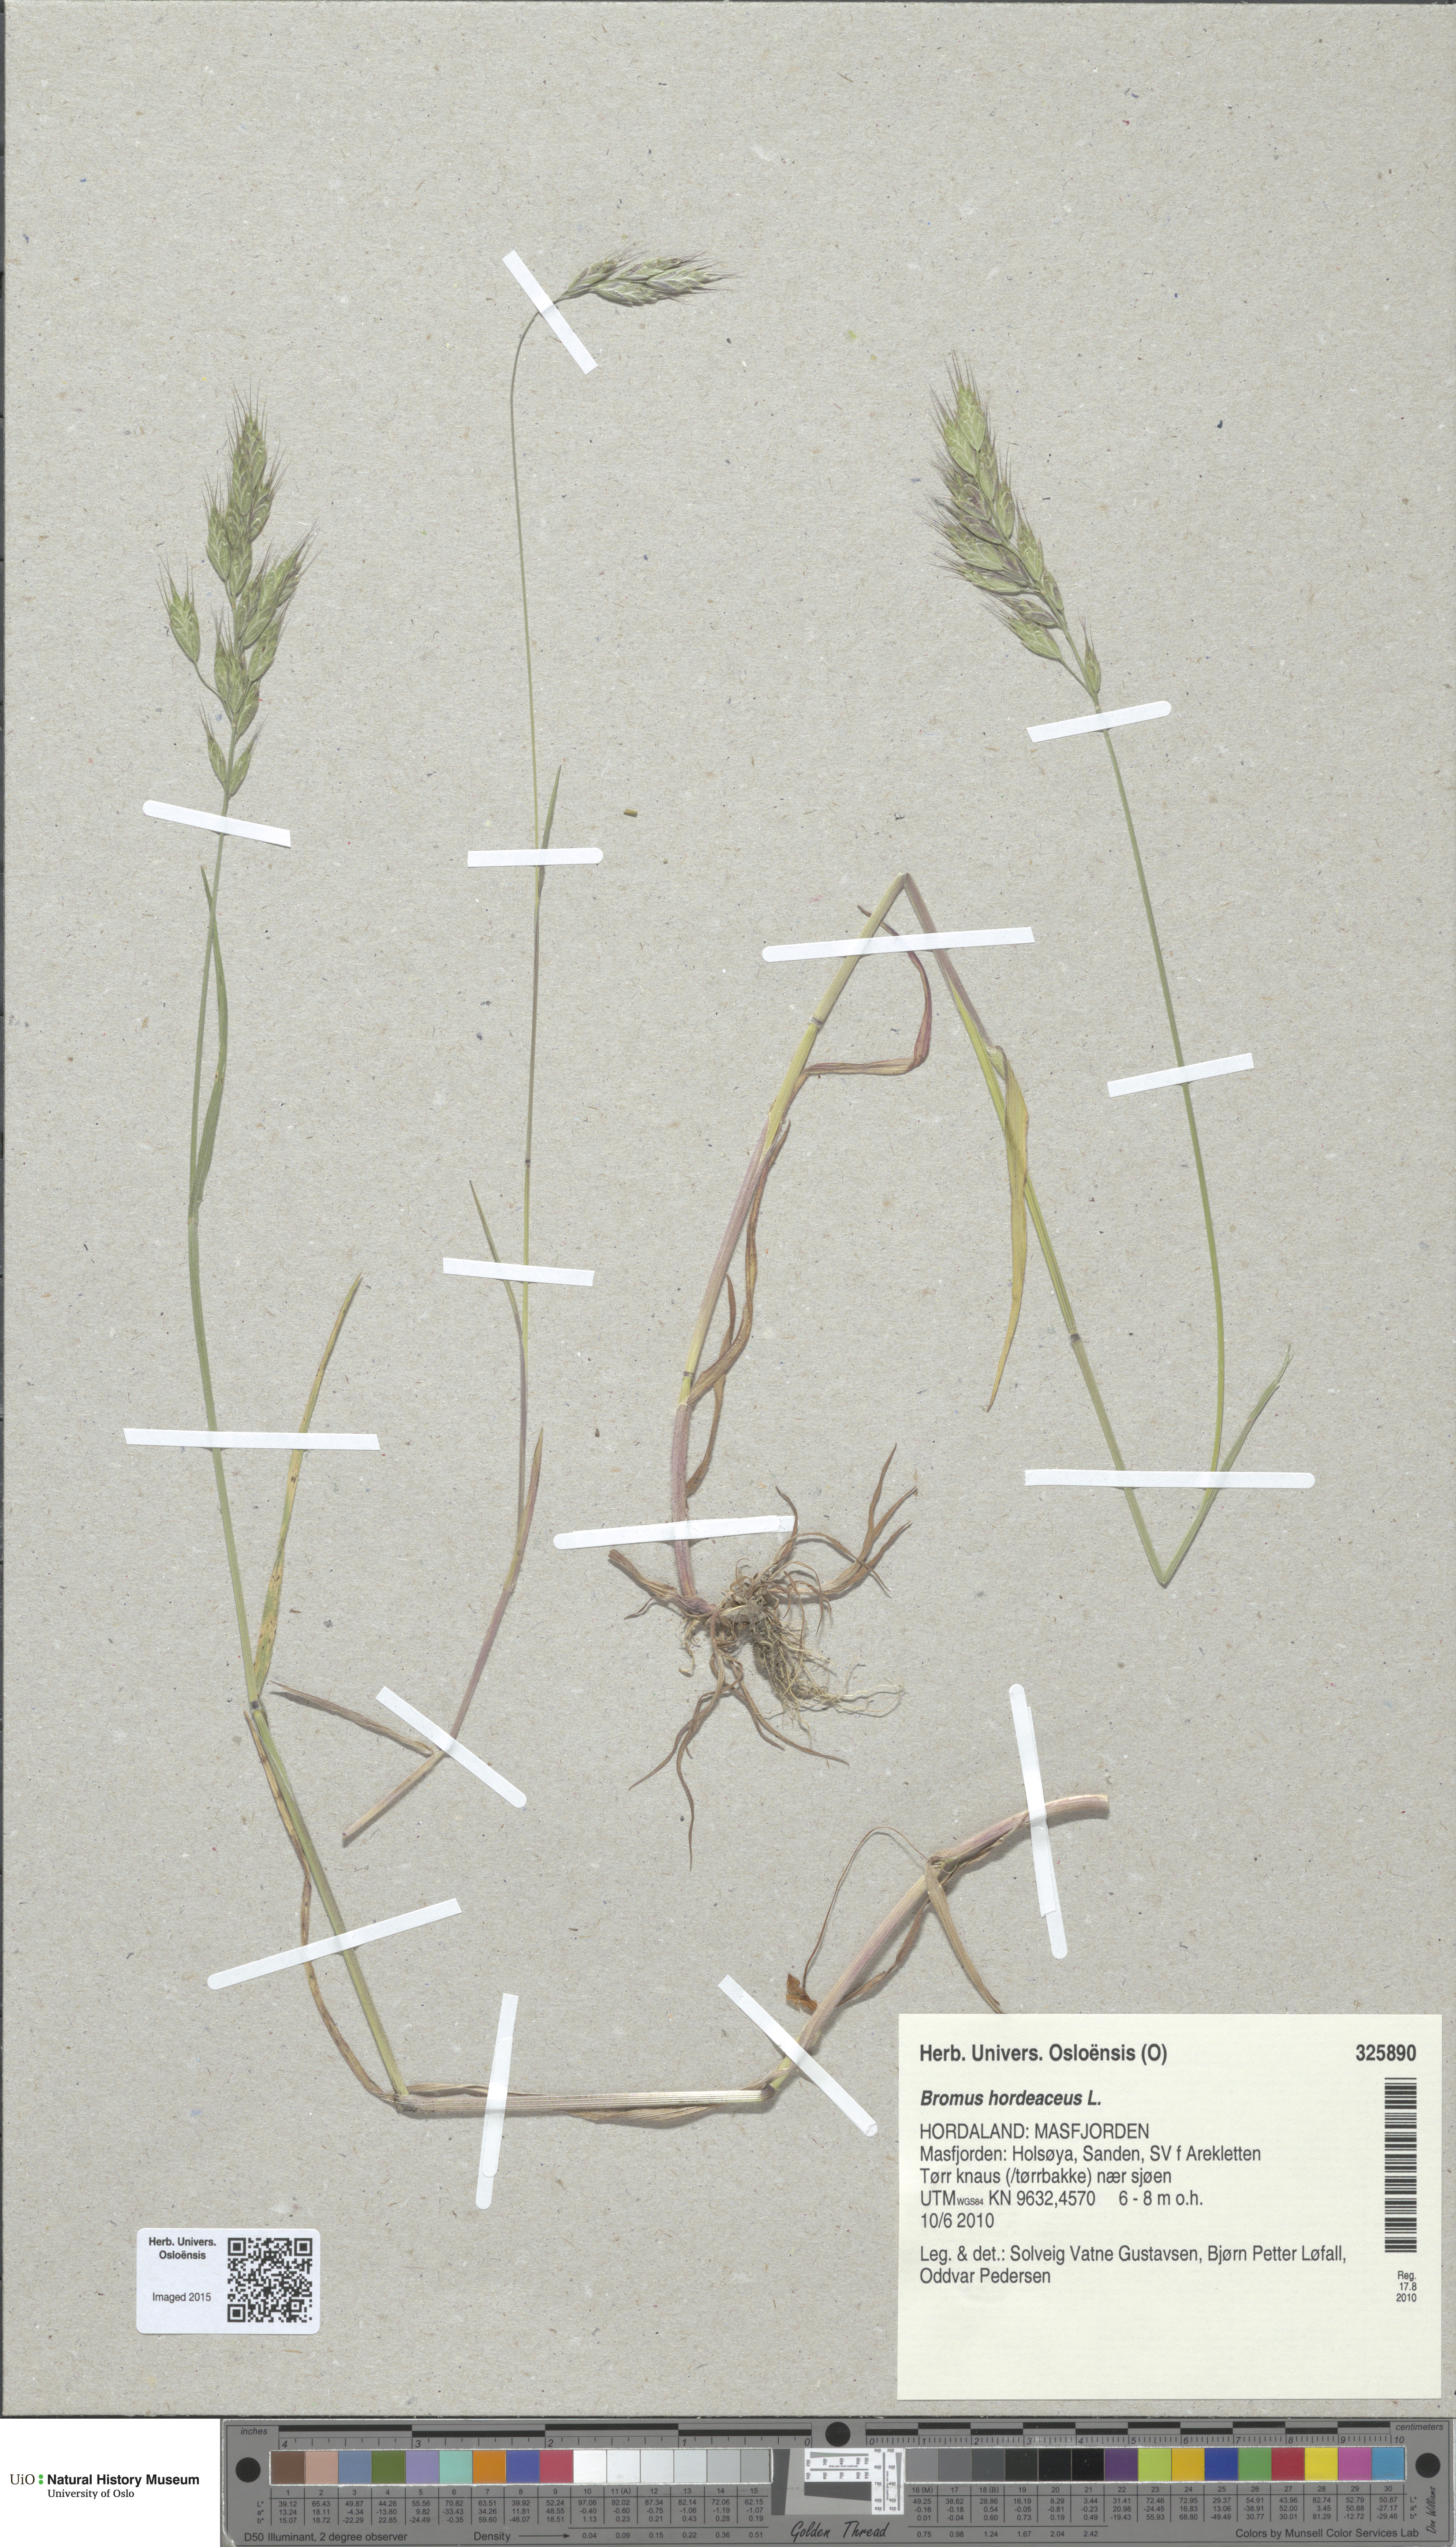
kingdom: Plantae
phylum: Tracheophyta
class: Liliopsida
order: Poales
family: Poaceae
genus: Bromus
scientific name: Bromus hordeaceus
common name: Soft brome
